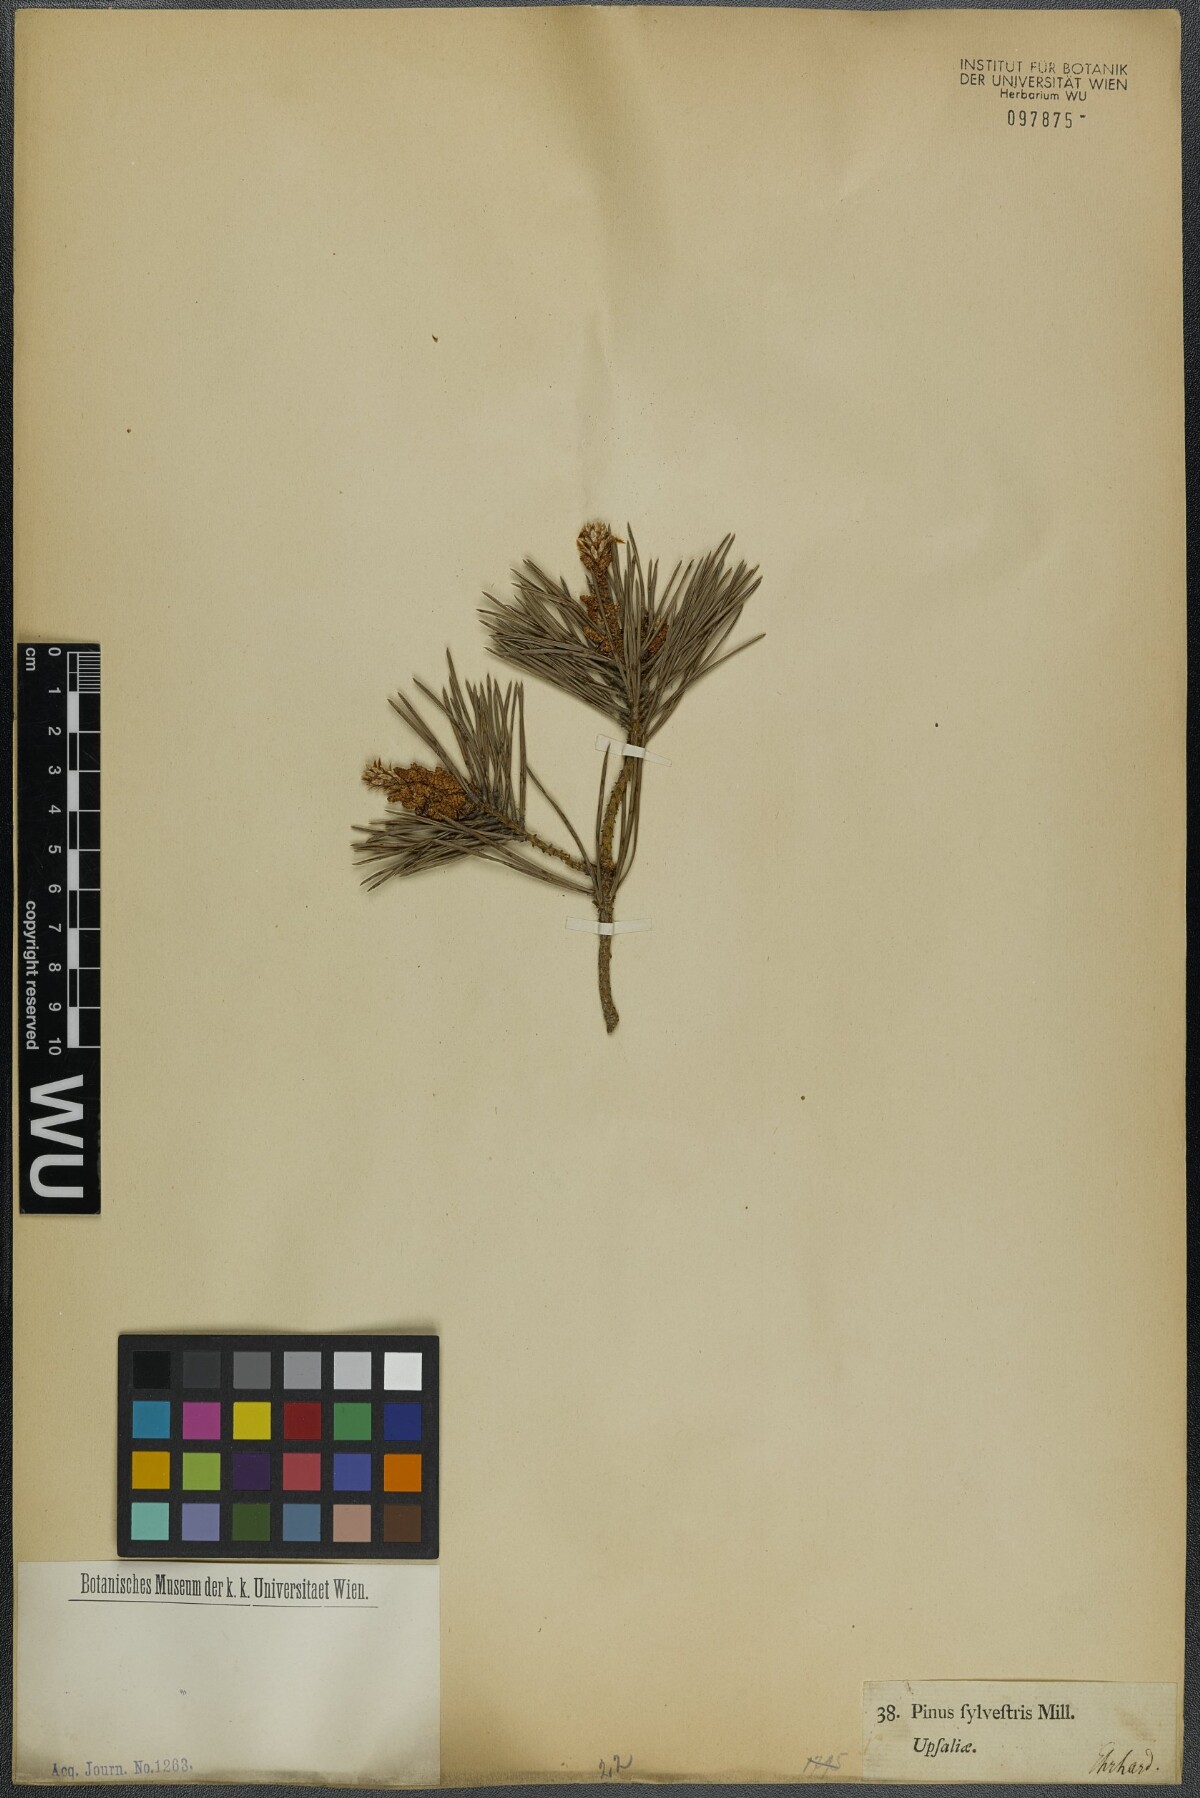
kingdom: Plantae
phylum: Tracheophyta
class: Pinopsida
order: Pinales
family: Pinaceae
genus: Pinus
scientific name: Pinus sylvestris
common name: Scots pine
